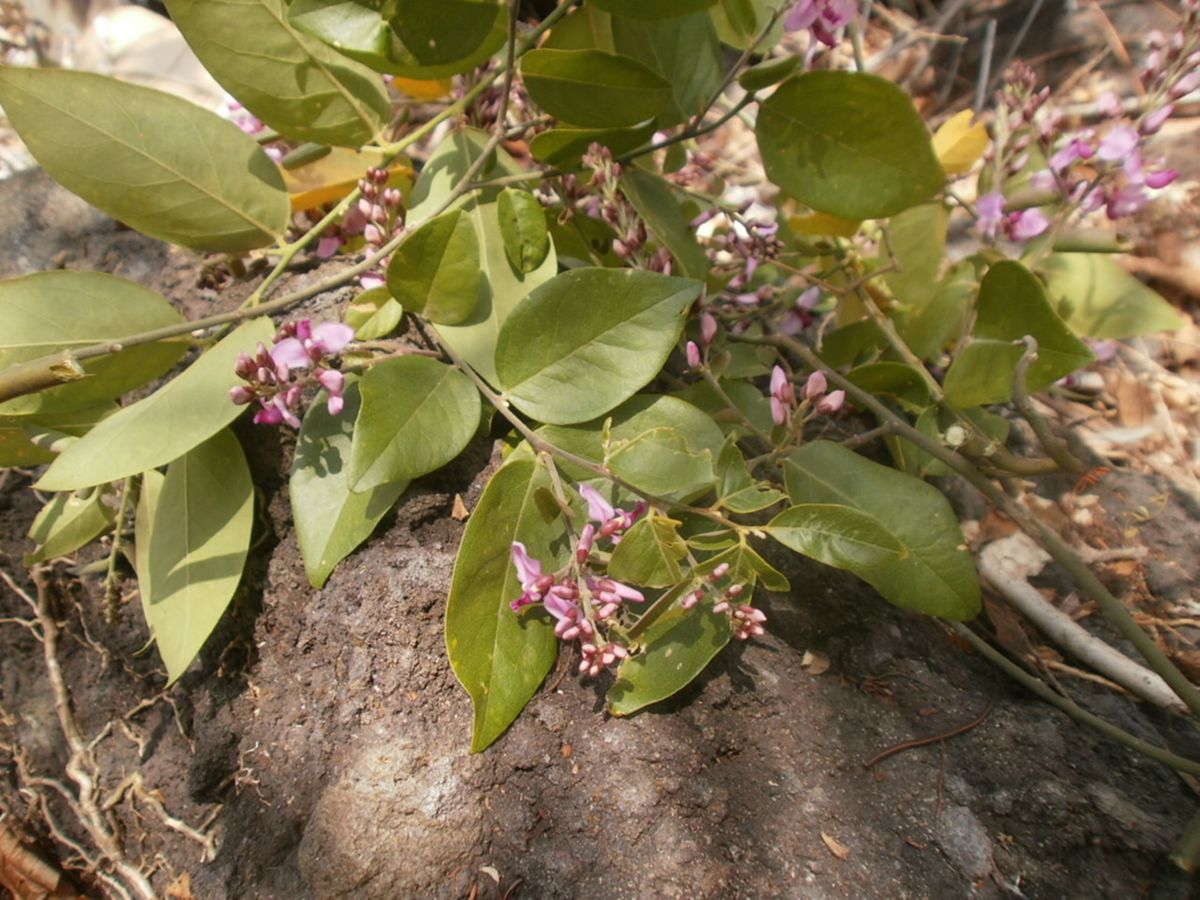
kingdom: Plantae
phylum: Tracheophyta
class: Magnoliopsida
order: Fabales
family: Polygalaceae
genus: Securidaca
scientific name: Securidaca diversifolia
